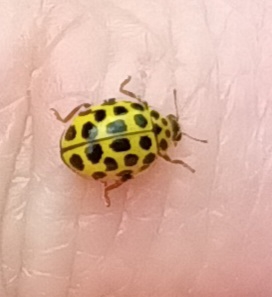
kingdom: Animalia
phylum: Arthropoda
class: Insecta
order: Coleoptera
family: Coccinellidae
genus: Psyllobora
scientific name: Psyllobora vigintiduopunctata
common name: Toogtyveplettet mariehøne
